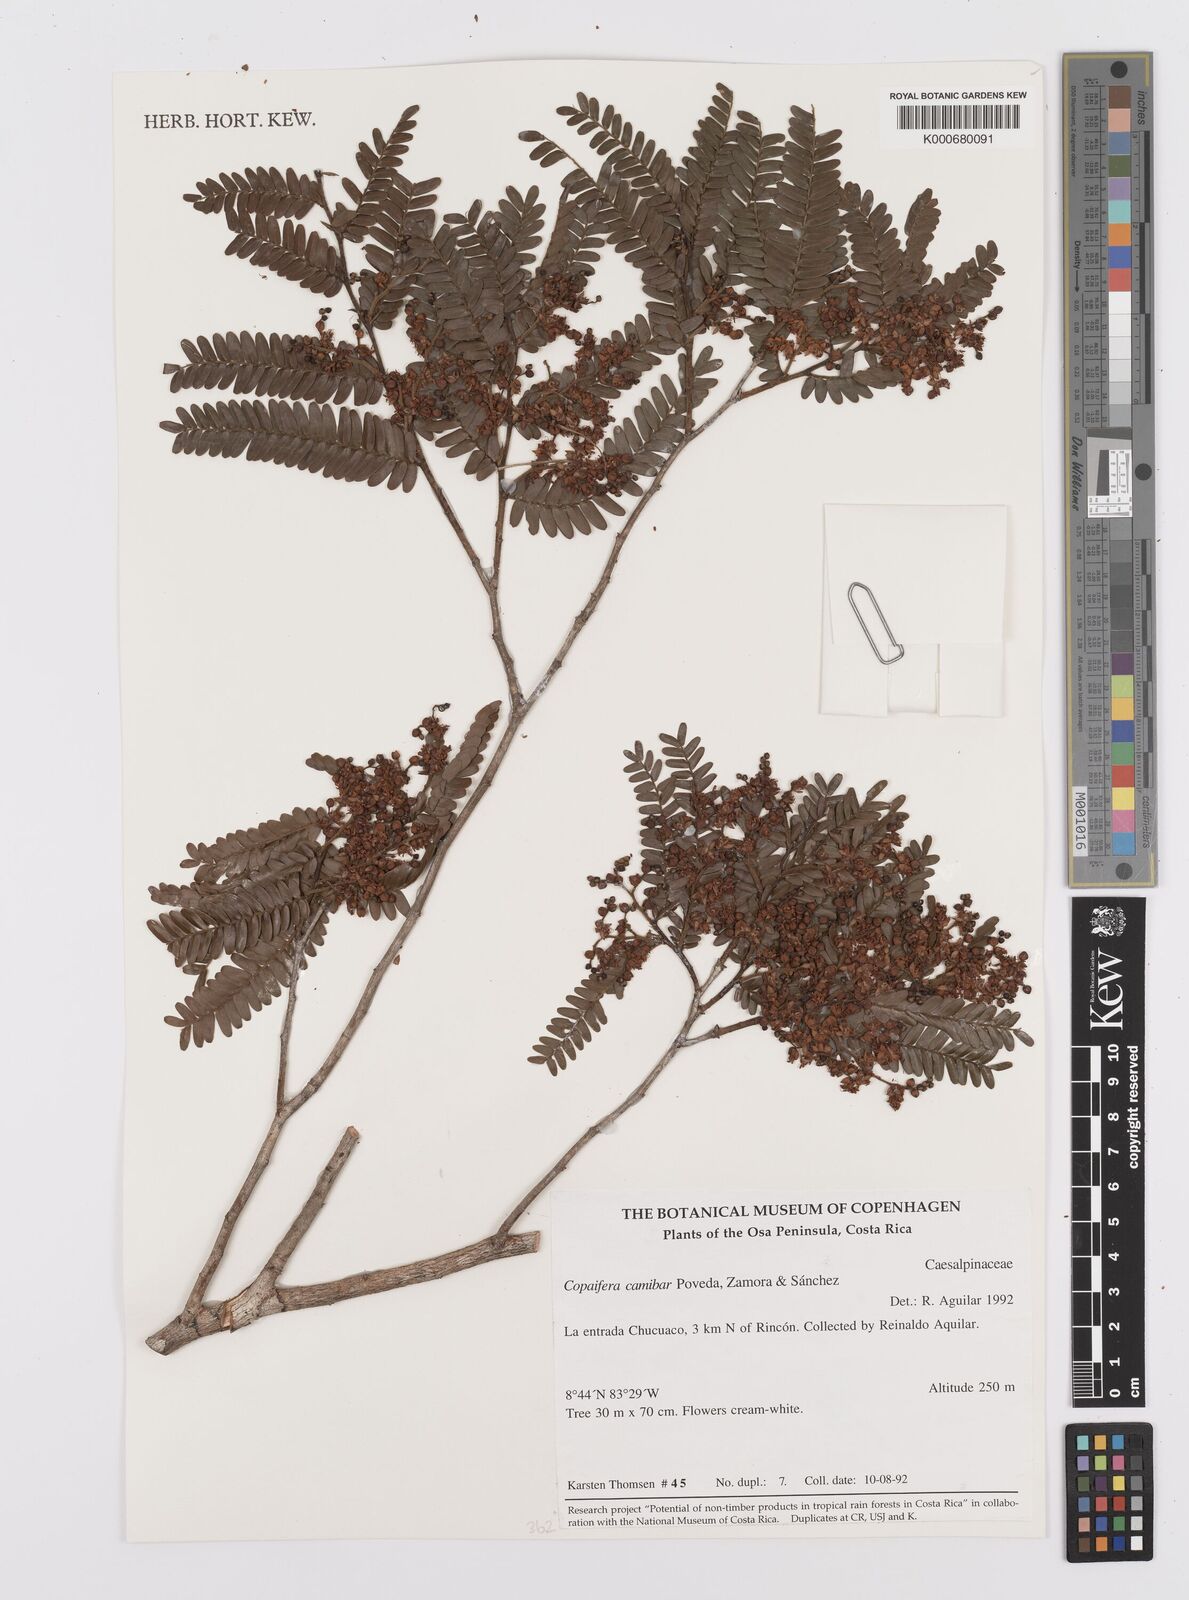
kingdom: Plantae
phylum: Tracheophyta
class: Magnoliopsida
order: Fabales
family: Fabaceae
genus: Copaifera
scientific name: Copaifera
